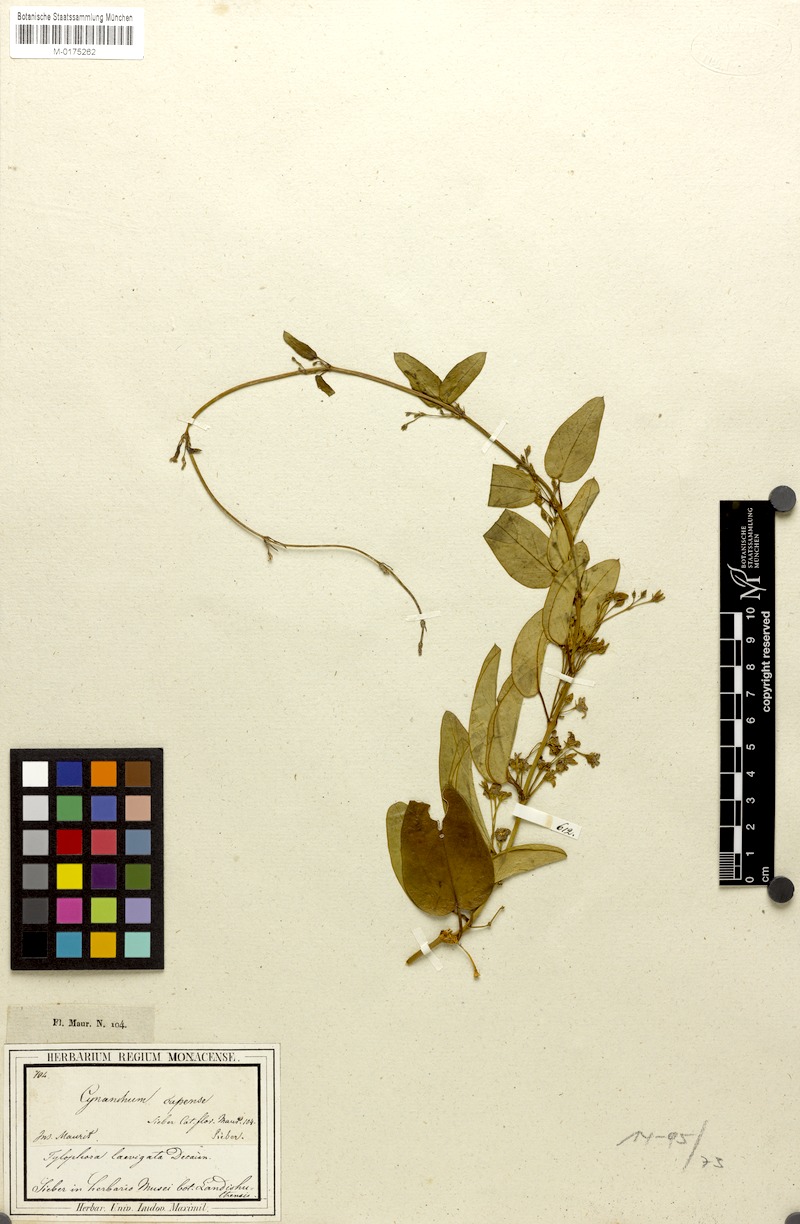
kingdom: Plantae
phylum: Tracheophyta
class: Magnoliopsida
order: Gentianales
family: Apocynaceae
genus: Vincetoxicum
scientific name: Vincetoxicum confusum
